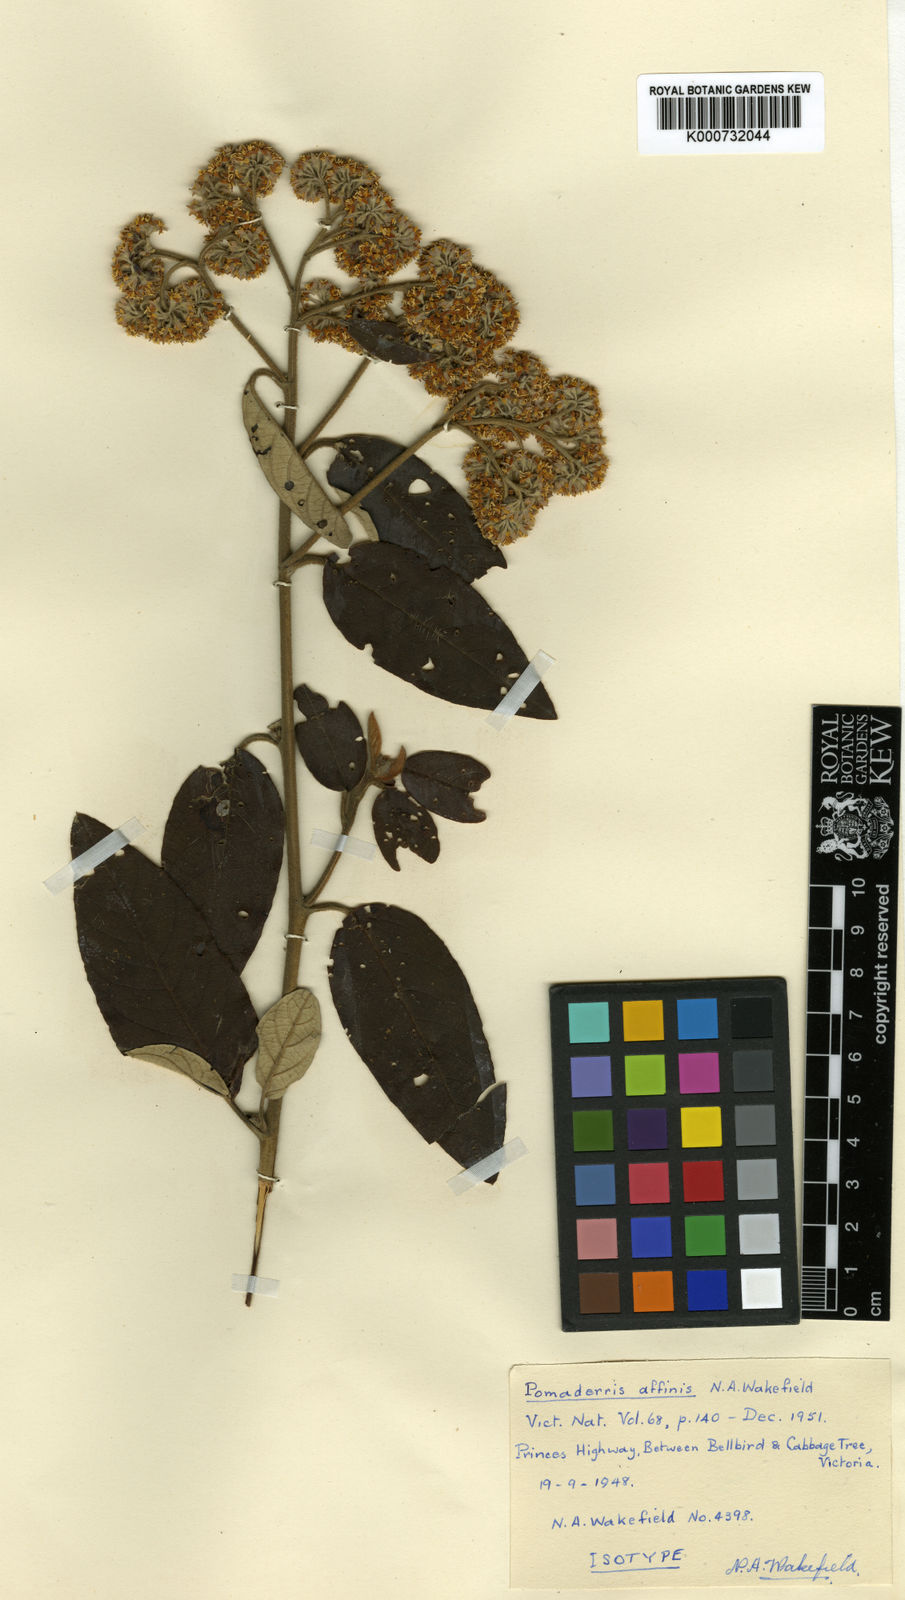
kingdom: Plantae
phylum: Tracheophyta
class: Magnoliopsida
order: Rosales
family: Rhamnaceae
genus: Pomaderris
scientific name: Pomaderris
